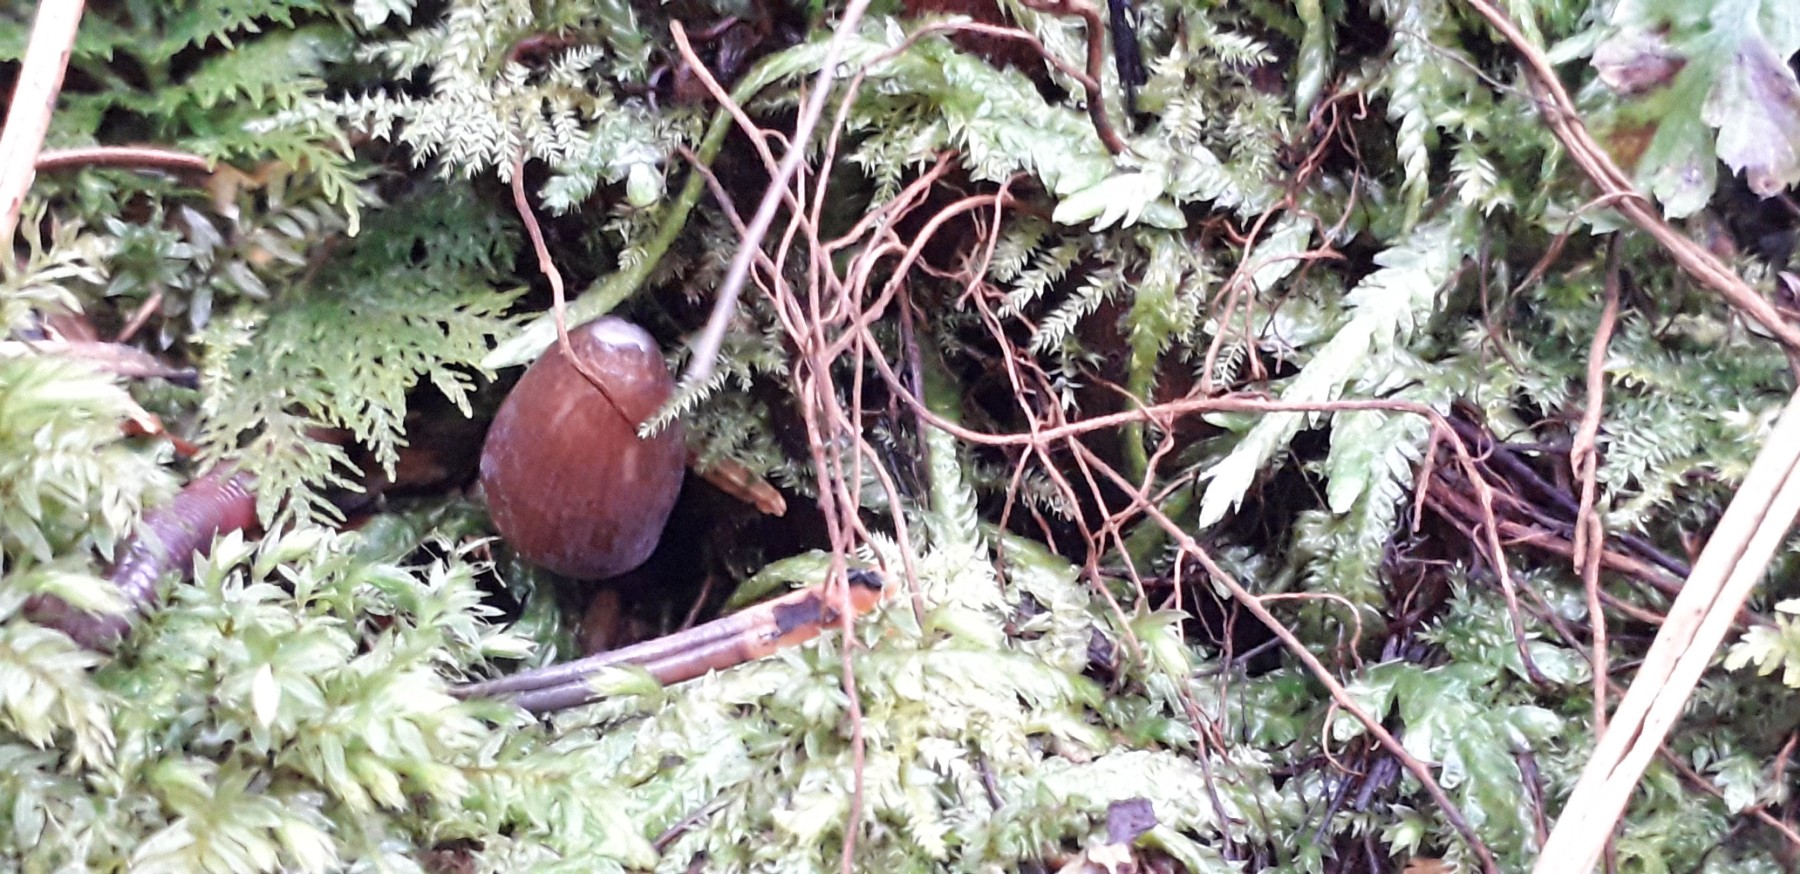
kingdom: Fungi
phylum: Basidiomycota
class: Agaricomycetes
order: Agaricales
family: Mycenaceae
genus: Mycena
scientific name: Mycena silvae-nigrae
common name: tidlig huesvamp
